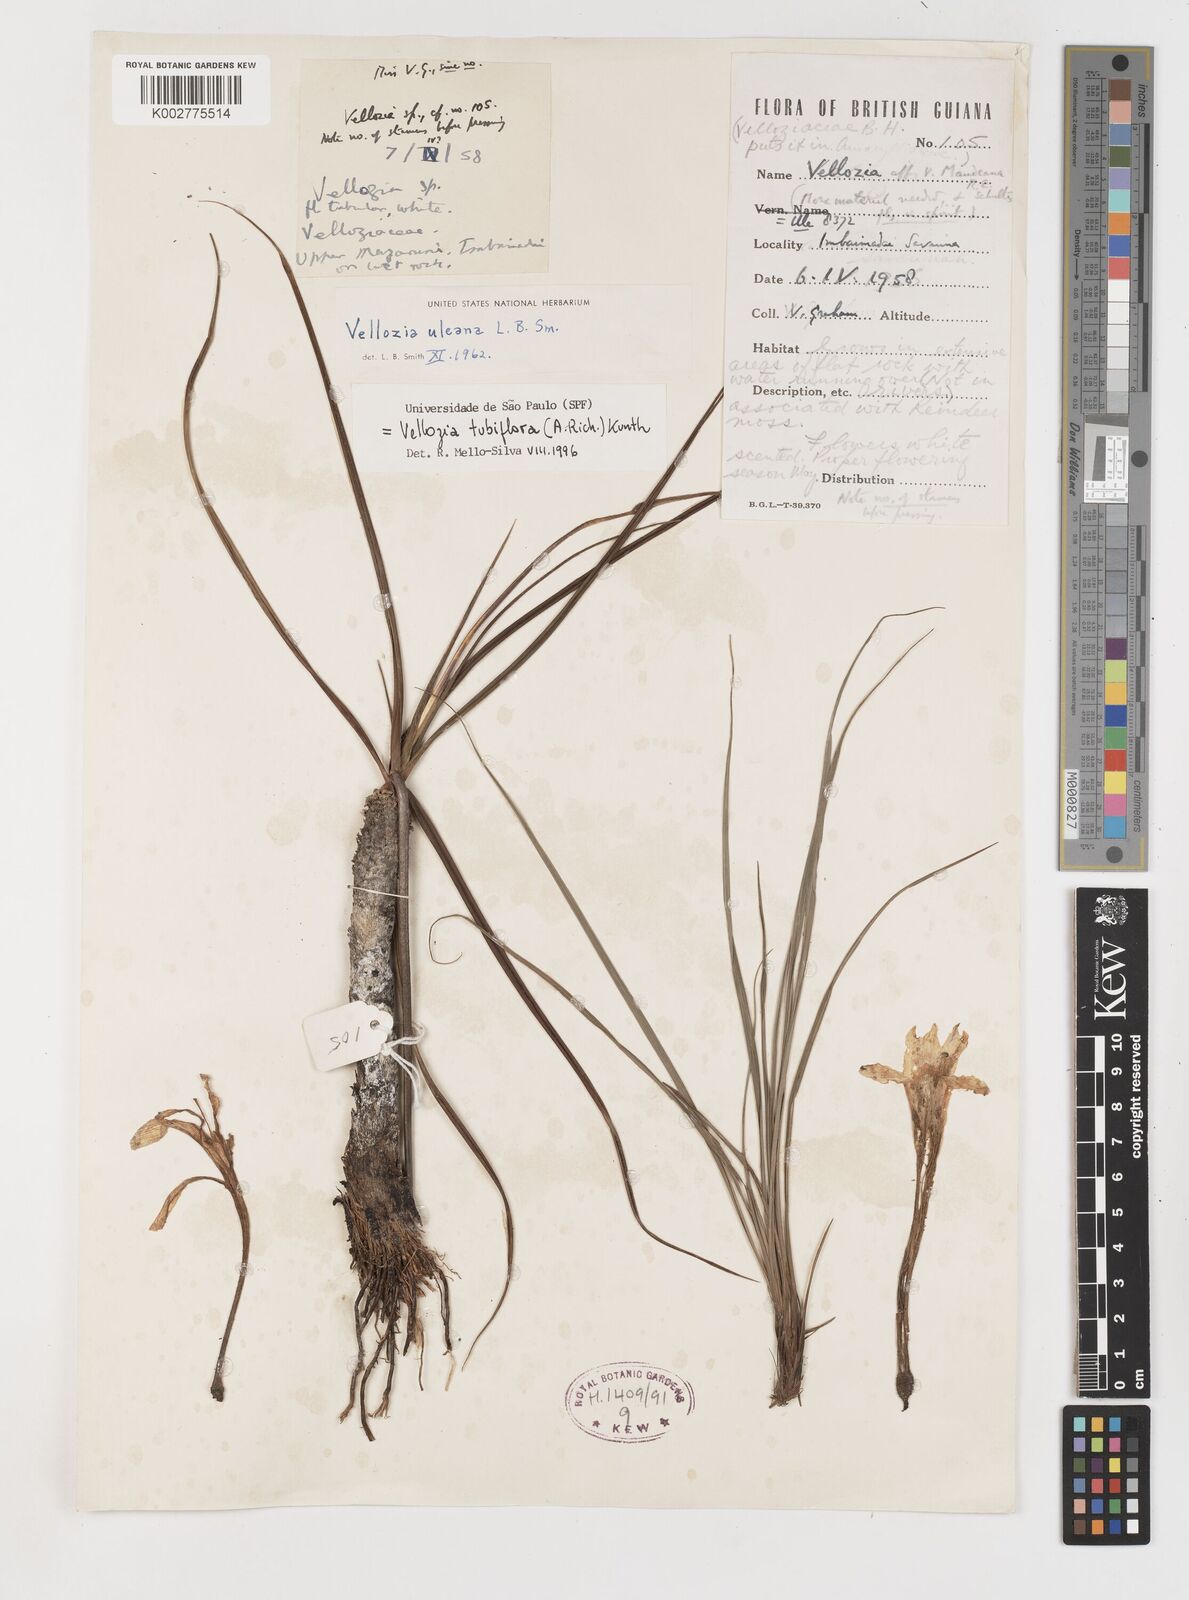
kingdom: Plantae
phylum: Tracheophyta
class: Liliopsida
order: Pandanales
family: Velloziaceae
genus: Vellozia
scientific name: Vellozia tubiflora
